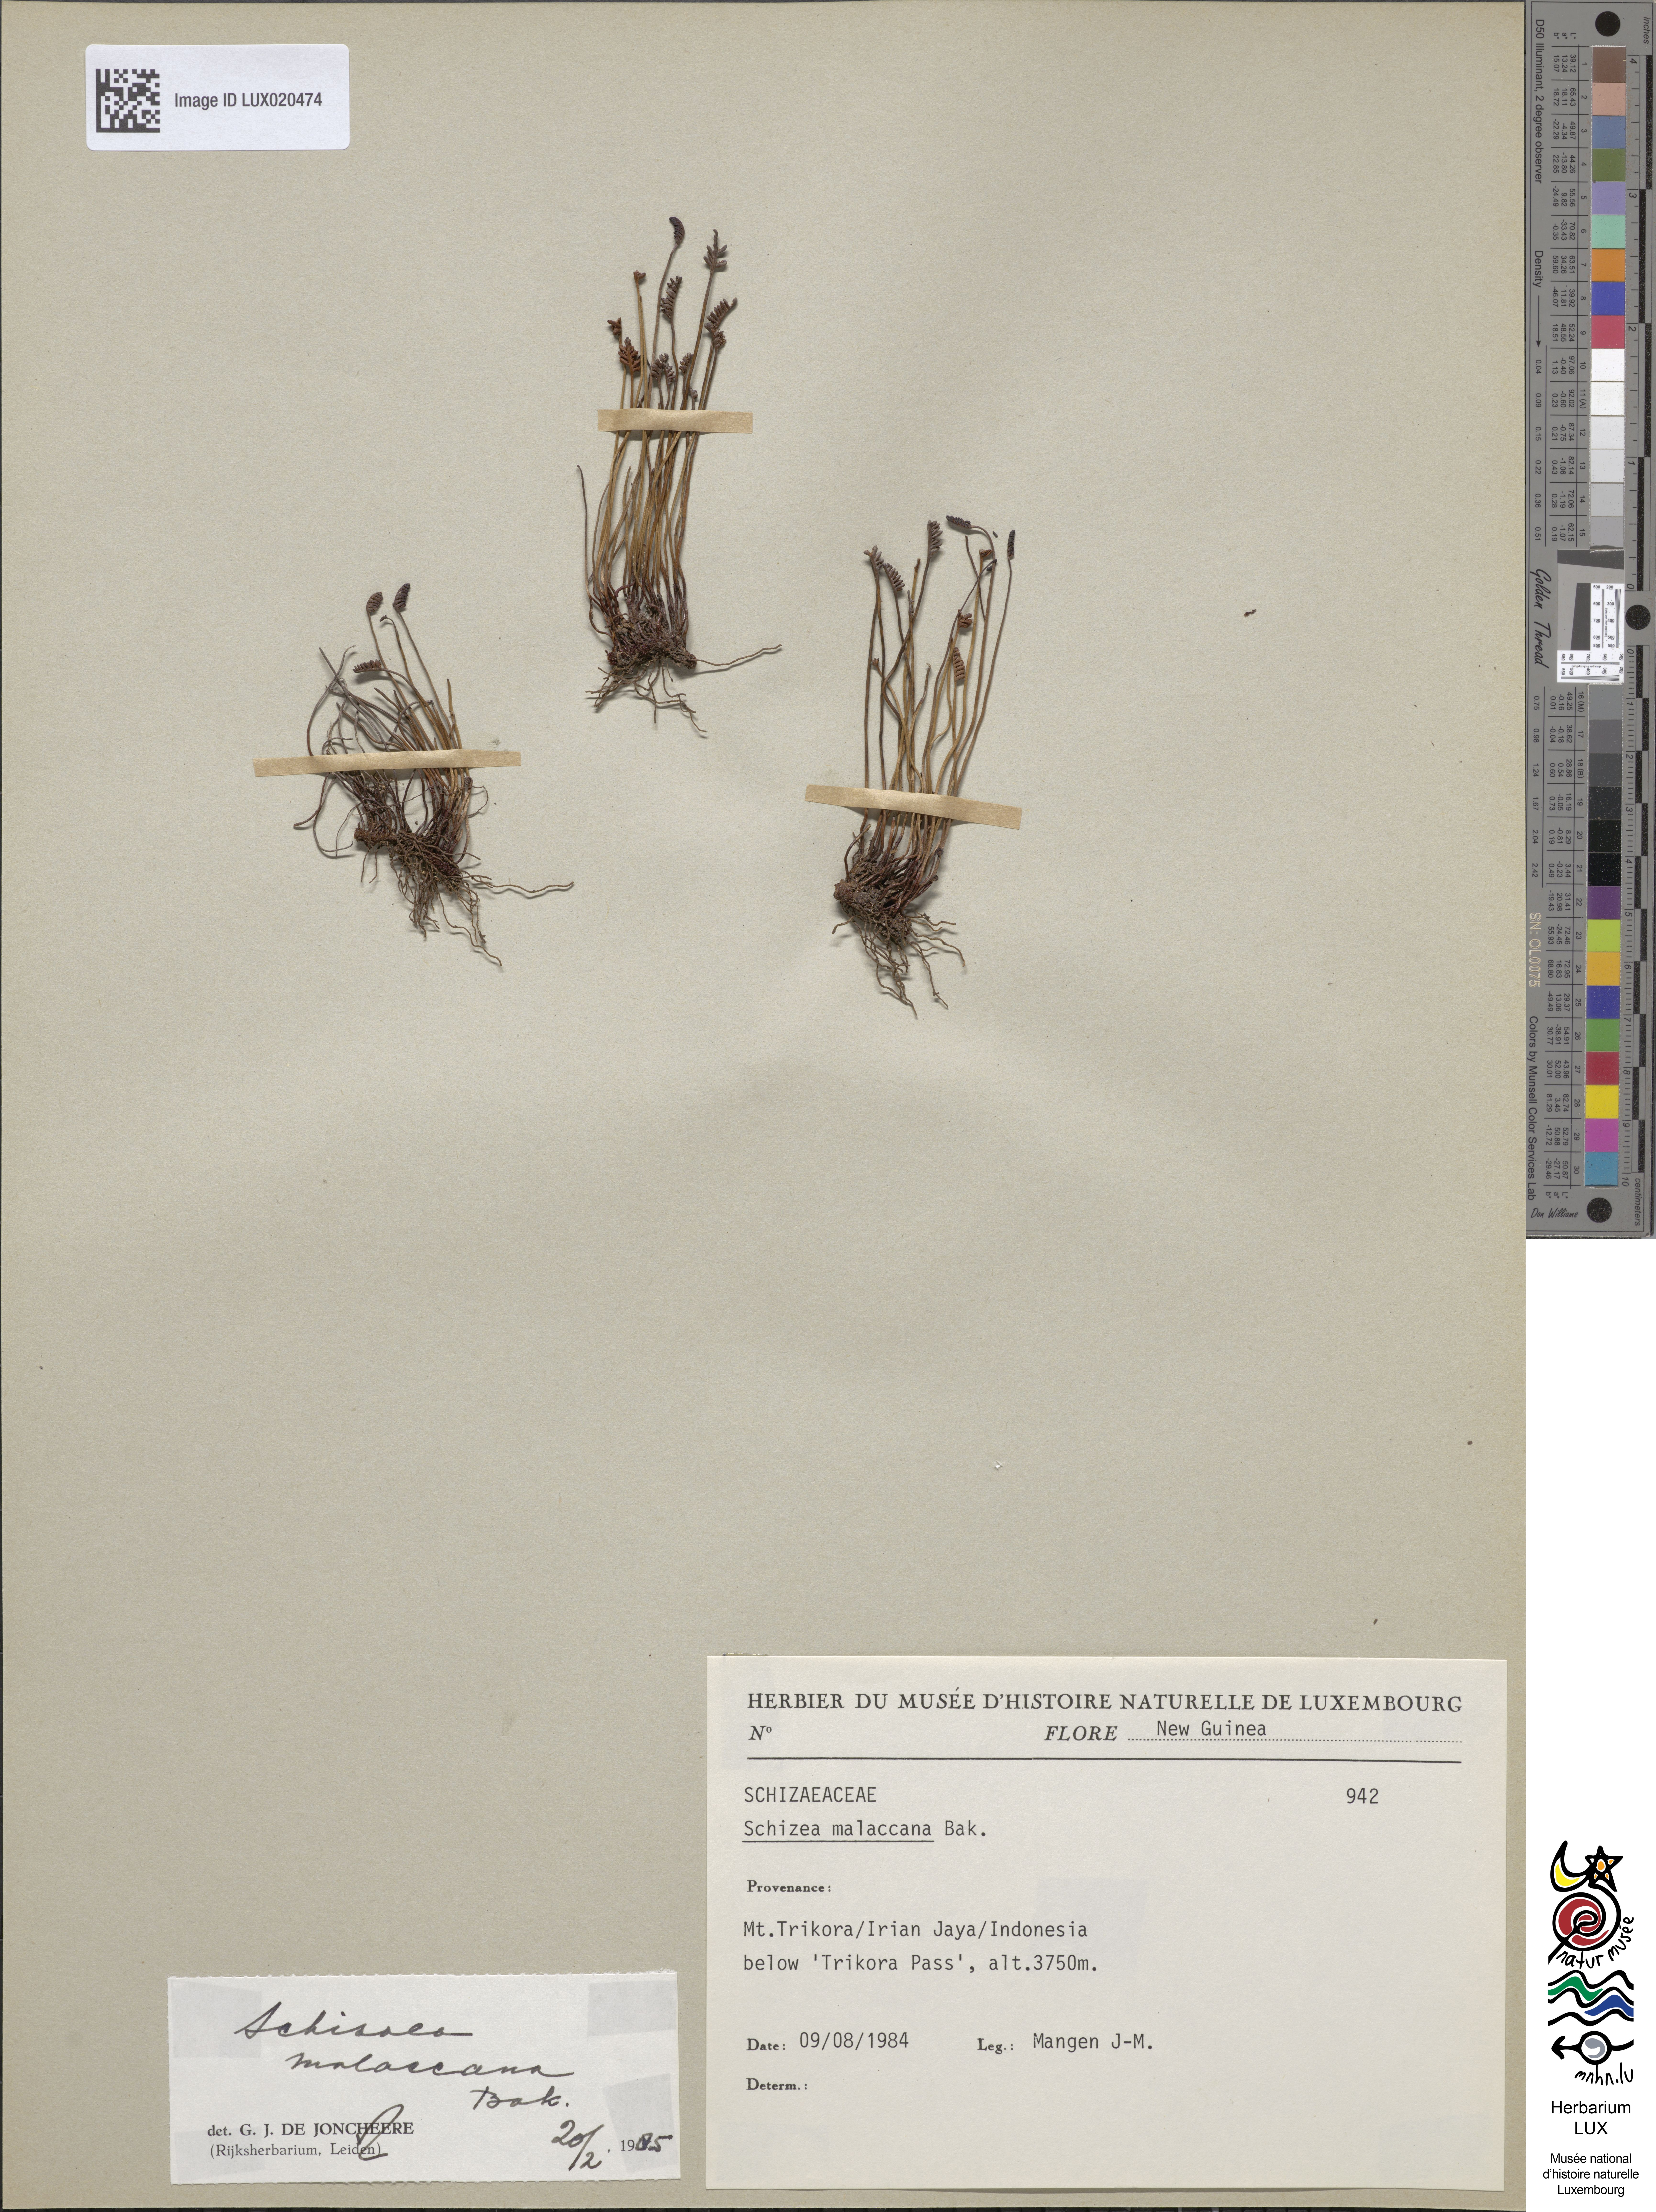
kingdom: Plantae
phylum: Tracheophyta
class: Polypodiopsida
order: Schizaeales
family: Schizaeaceae
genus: Microschizaea
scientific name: Microschizaea malaccana
